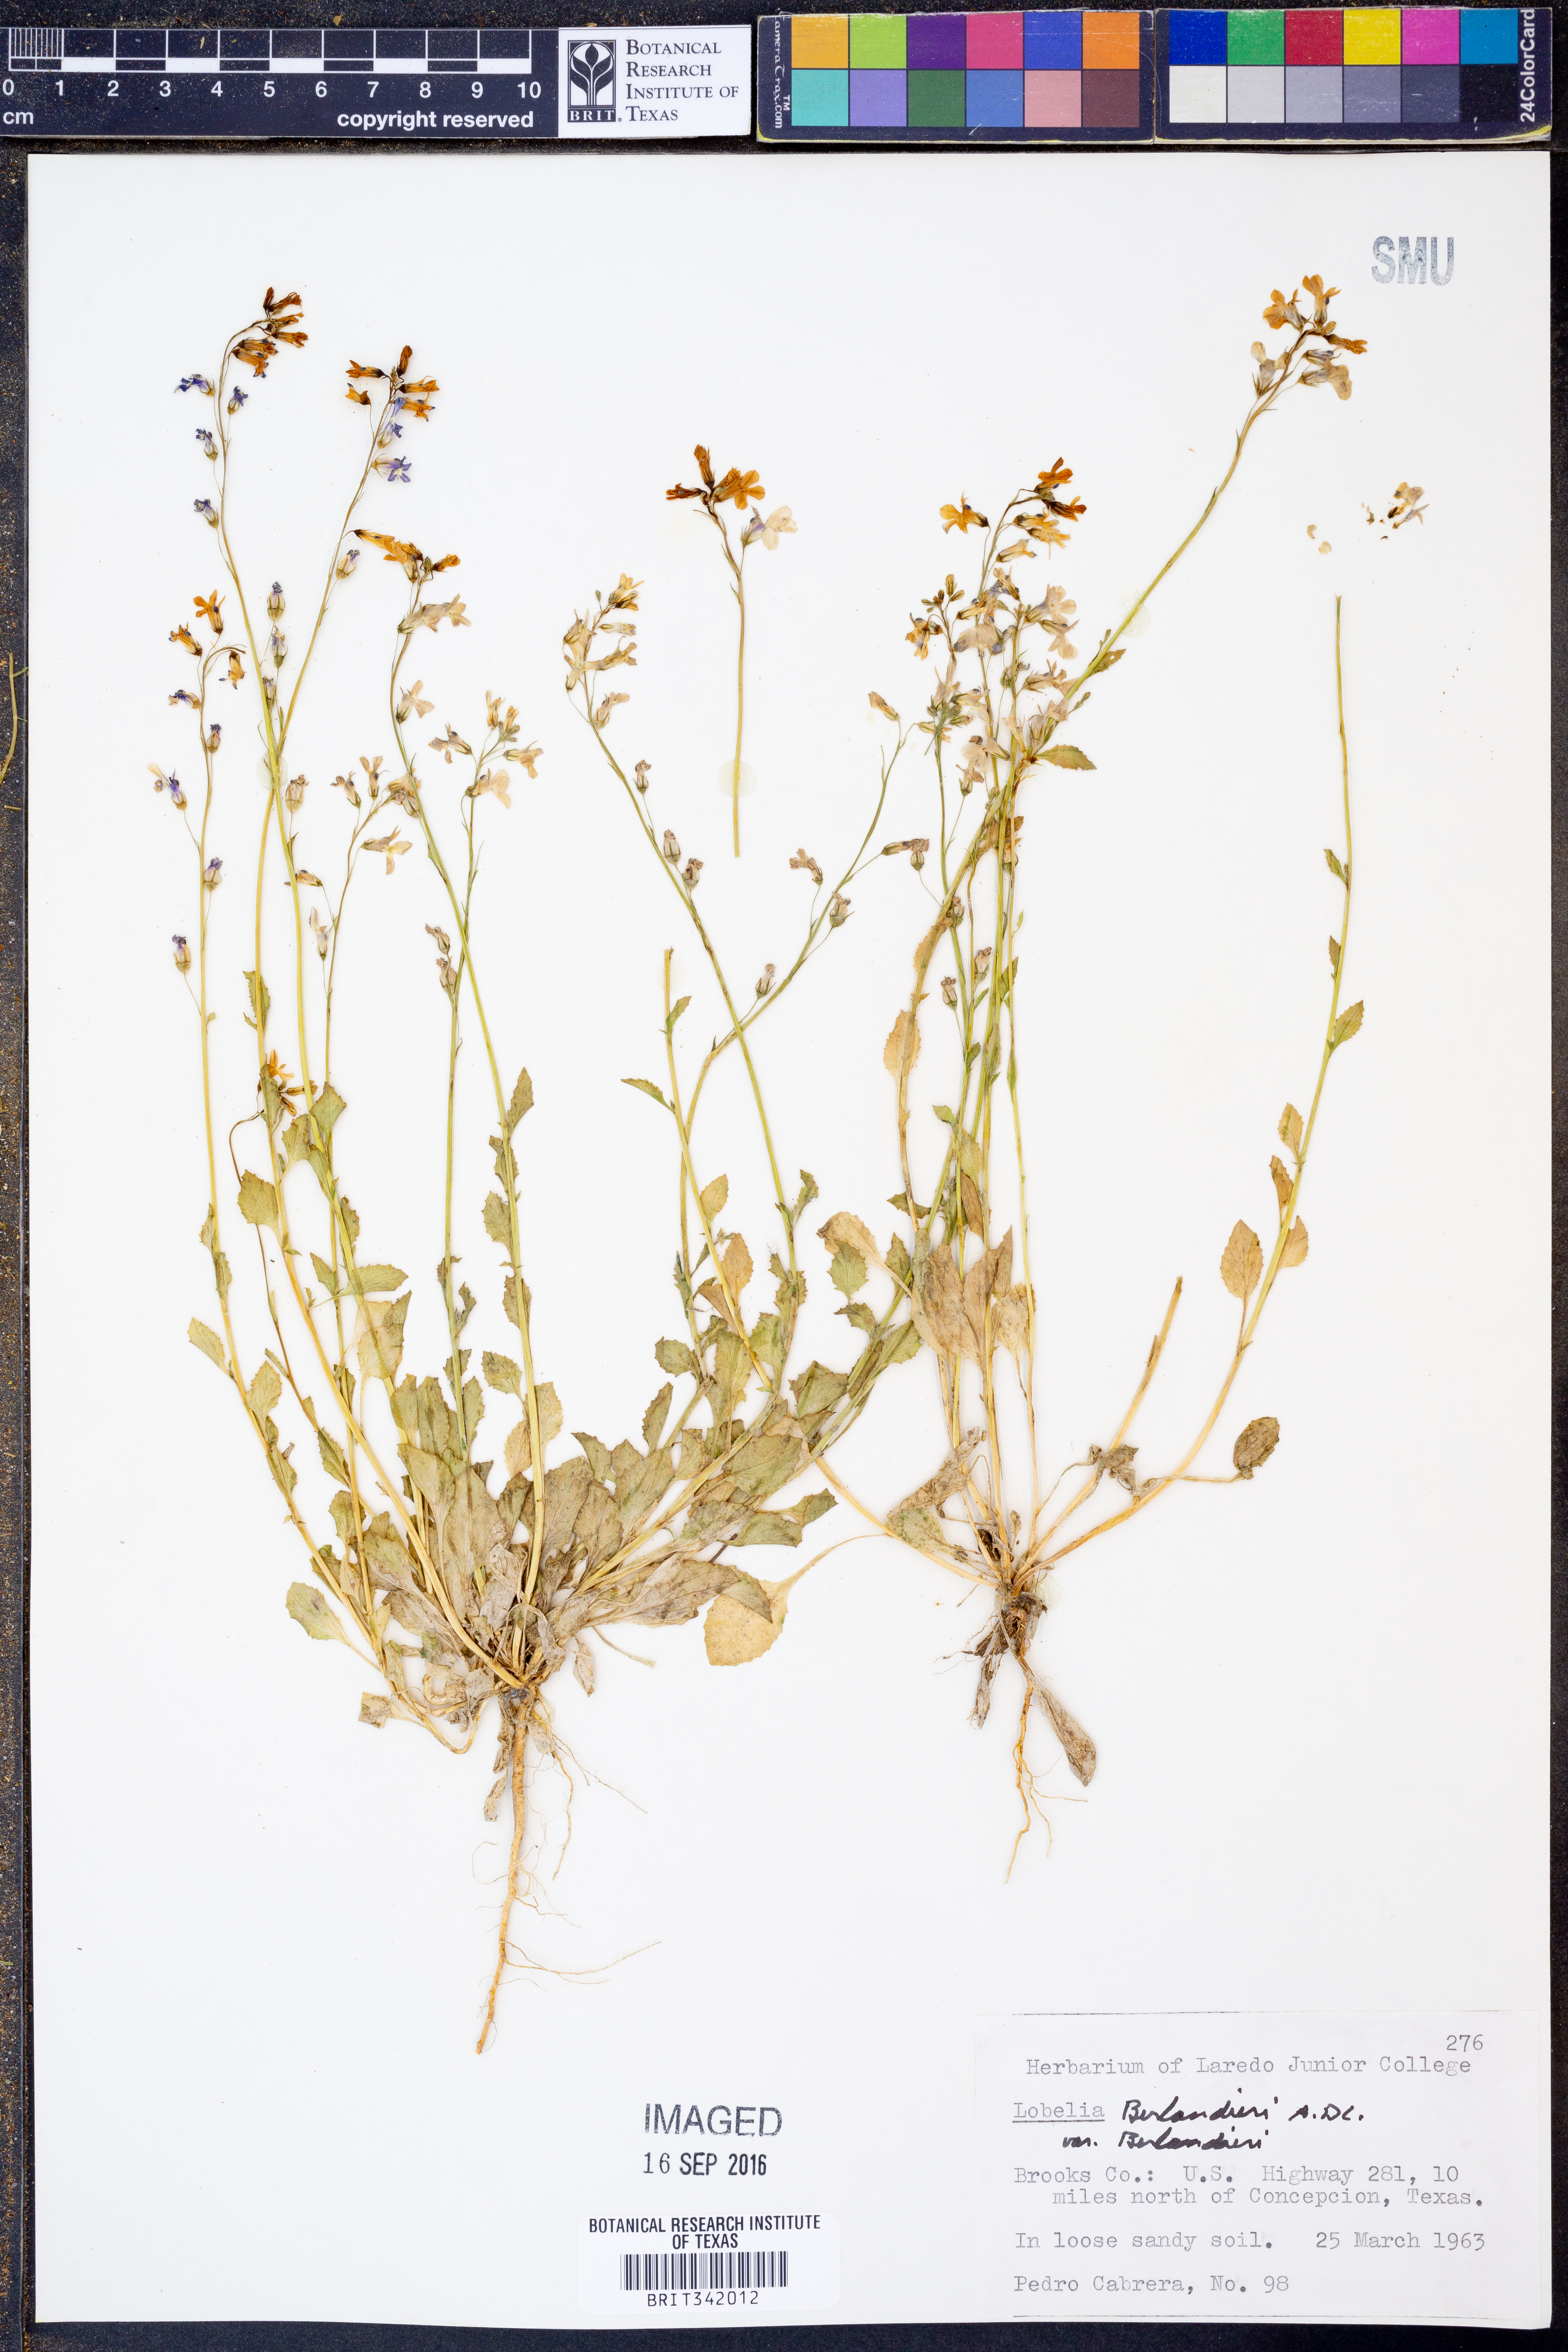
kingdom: Plantae
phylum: Tracheophyta
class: Magnoliopsida
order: Asterales
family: Campanulaceae
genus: Lobelia
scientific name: Lobelia berlandieri
